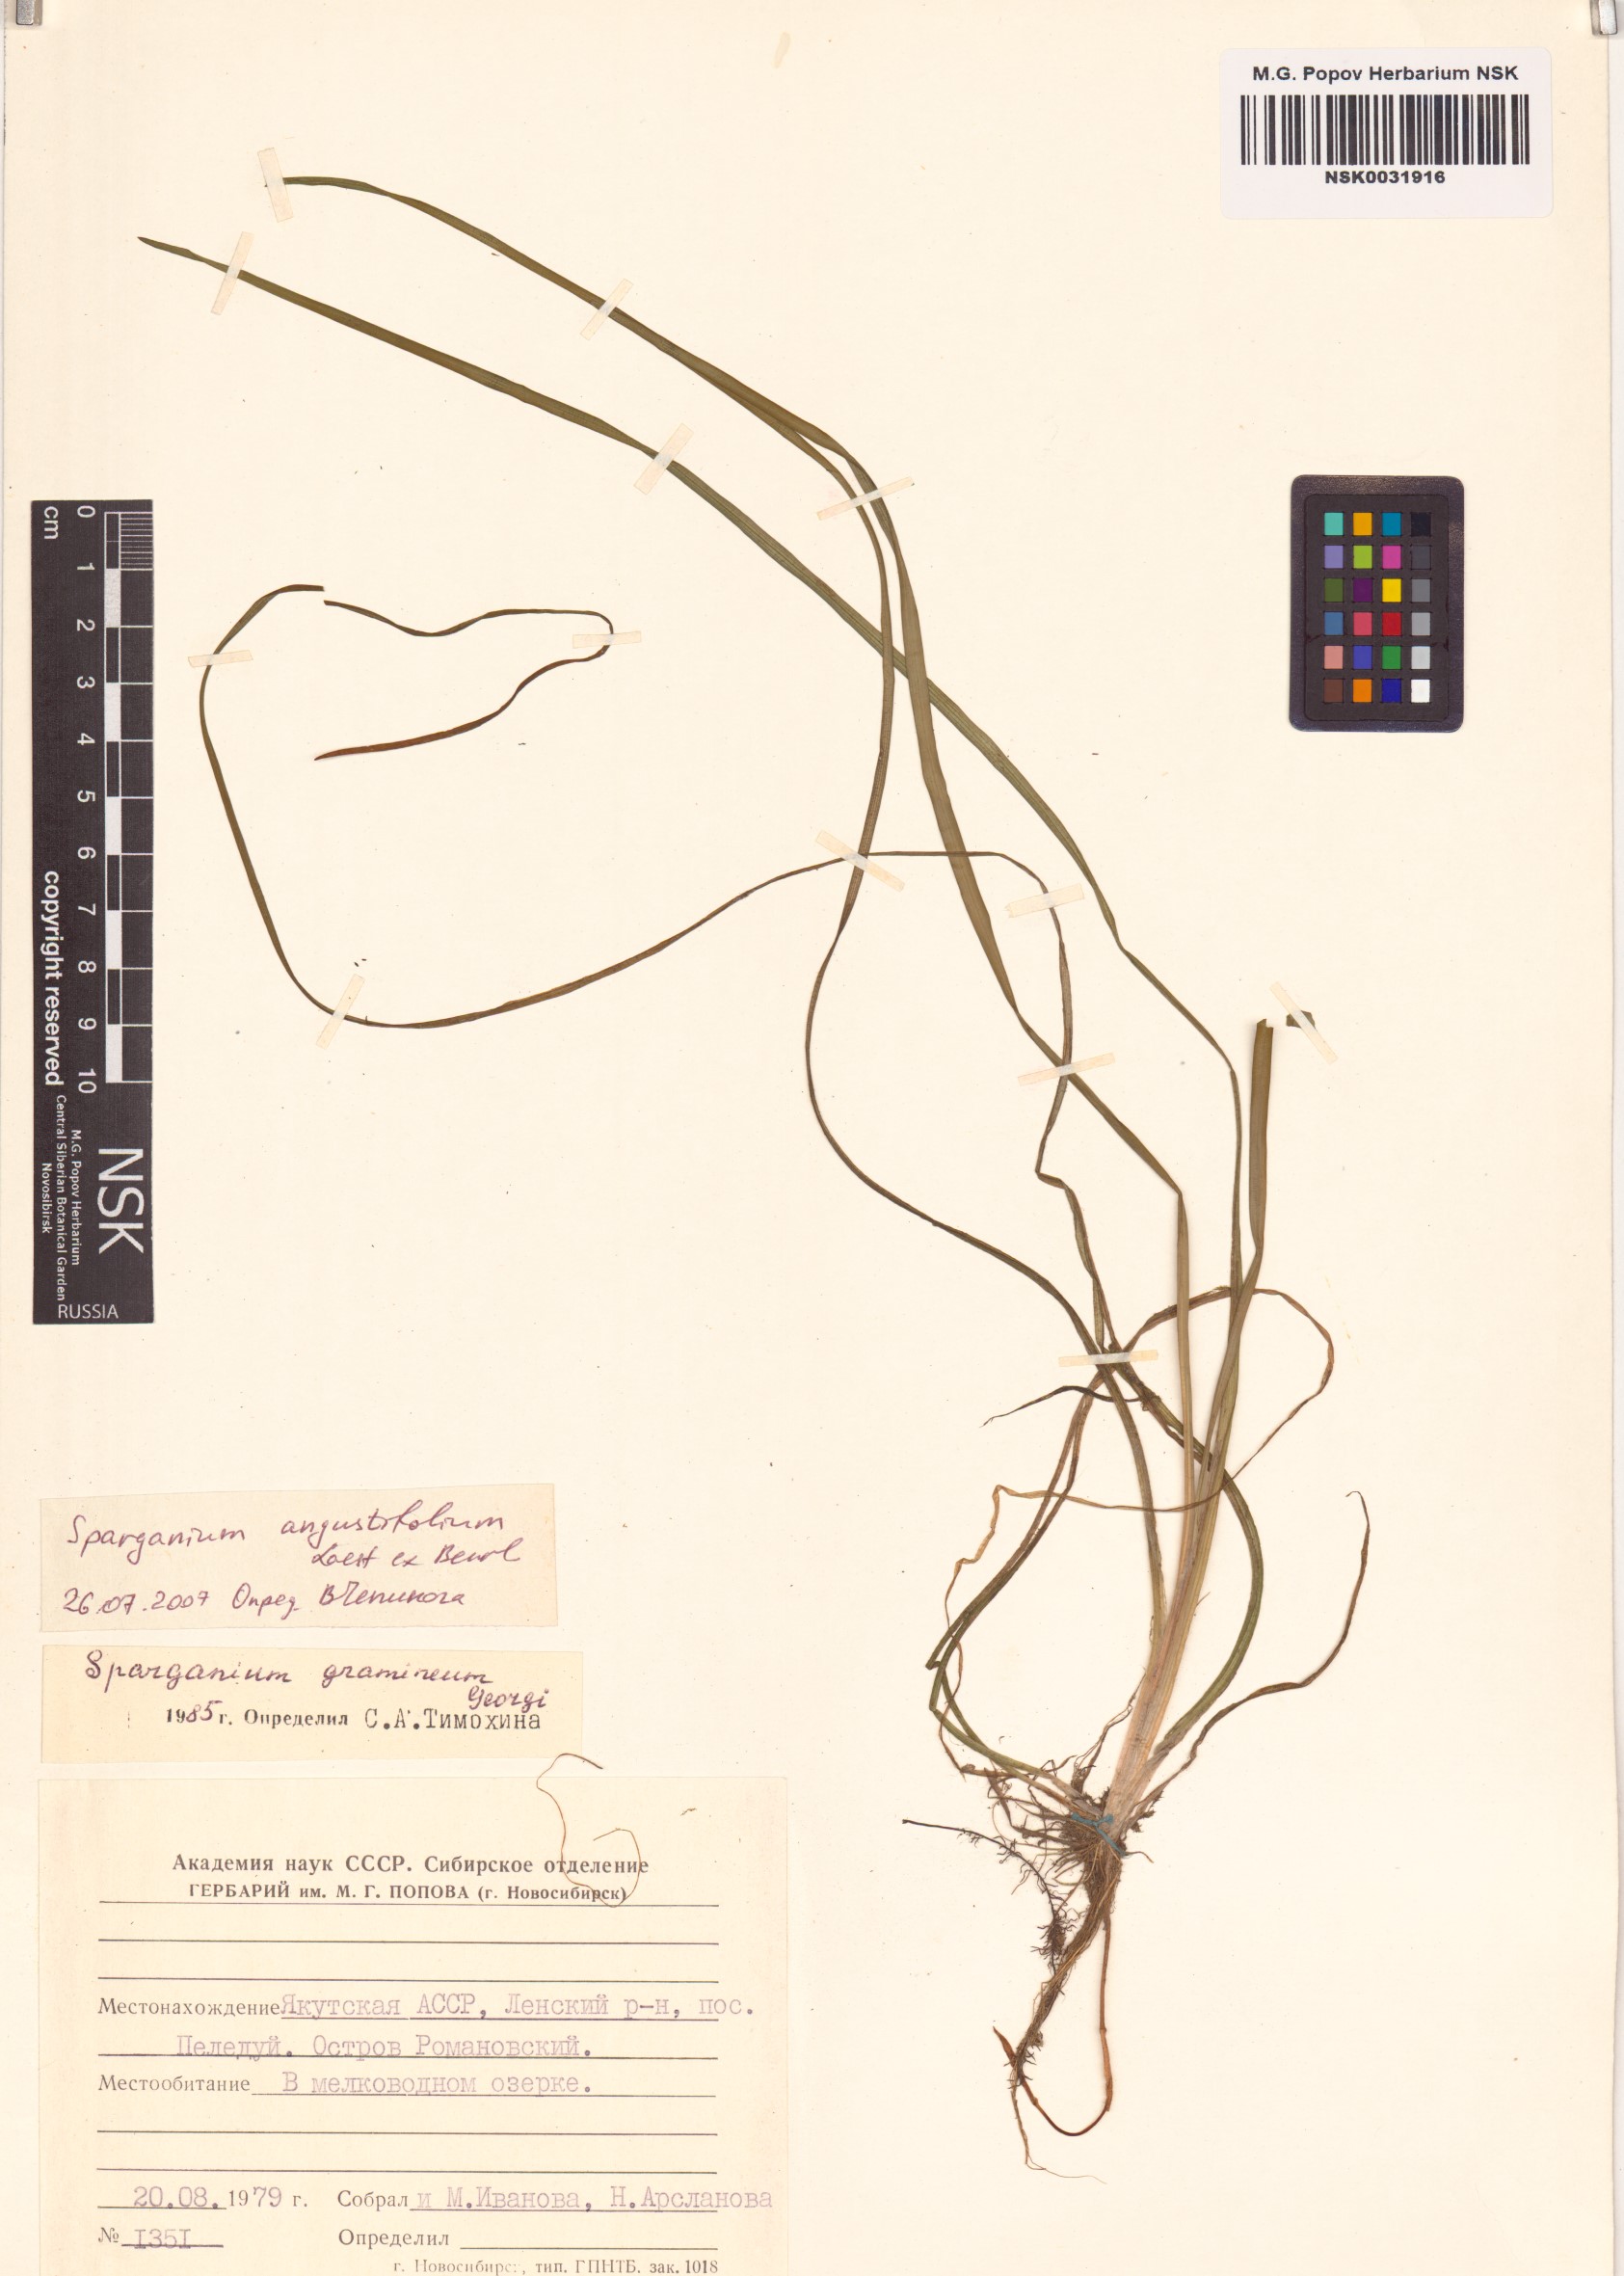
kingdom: Plantae
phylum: Tracheophyta
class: Liliopsida
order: Poales
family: Typhaceae
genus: Sparganium
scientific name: Sparganium gramineum
